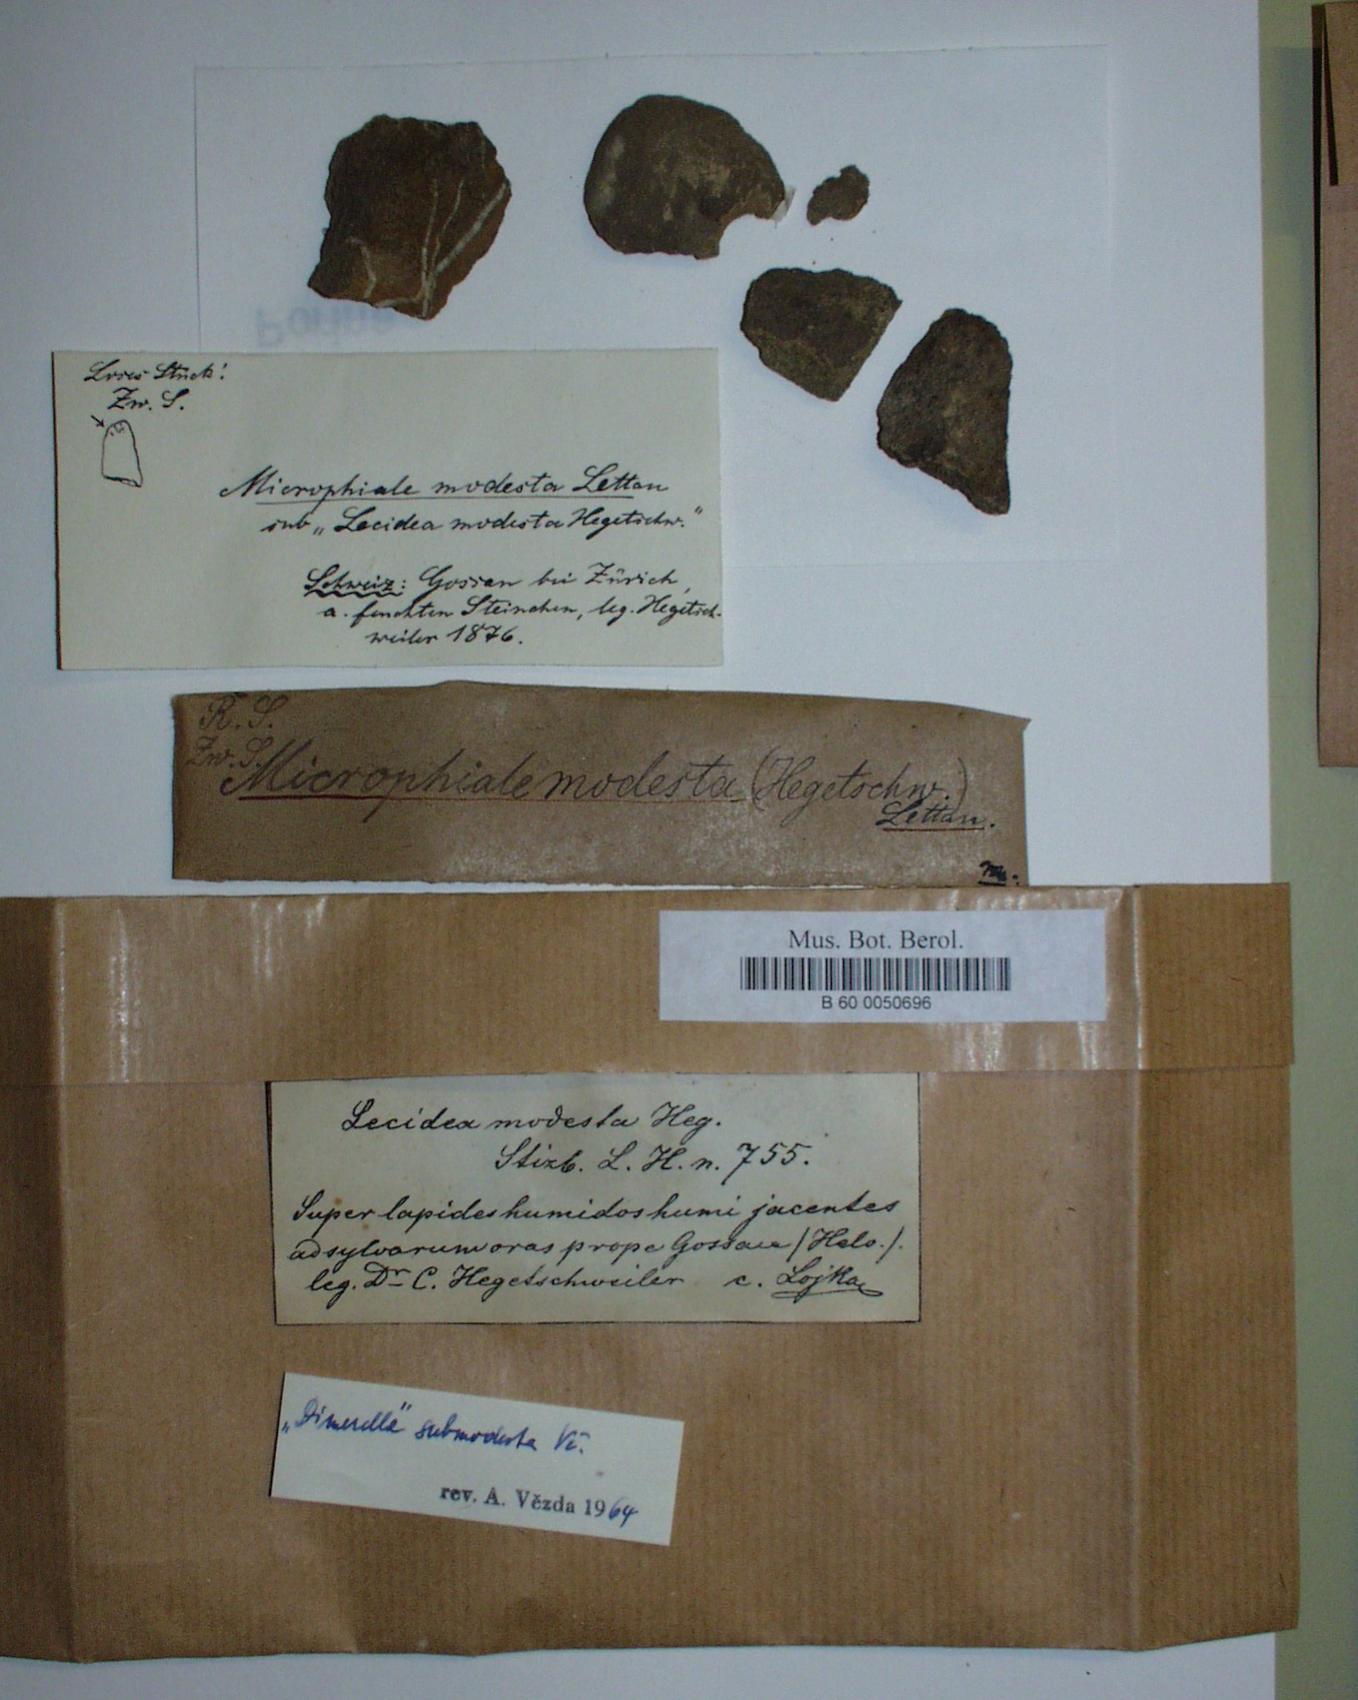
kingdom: Fungi
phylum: Ascomycota
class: Lecanoromycetes
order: Ostropales
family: Stictidaceae
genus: Absconditella
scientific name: Absconditella delutula
